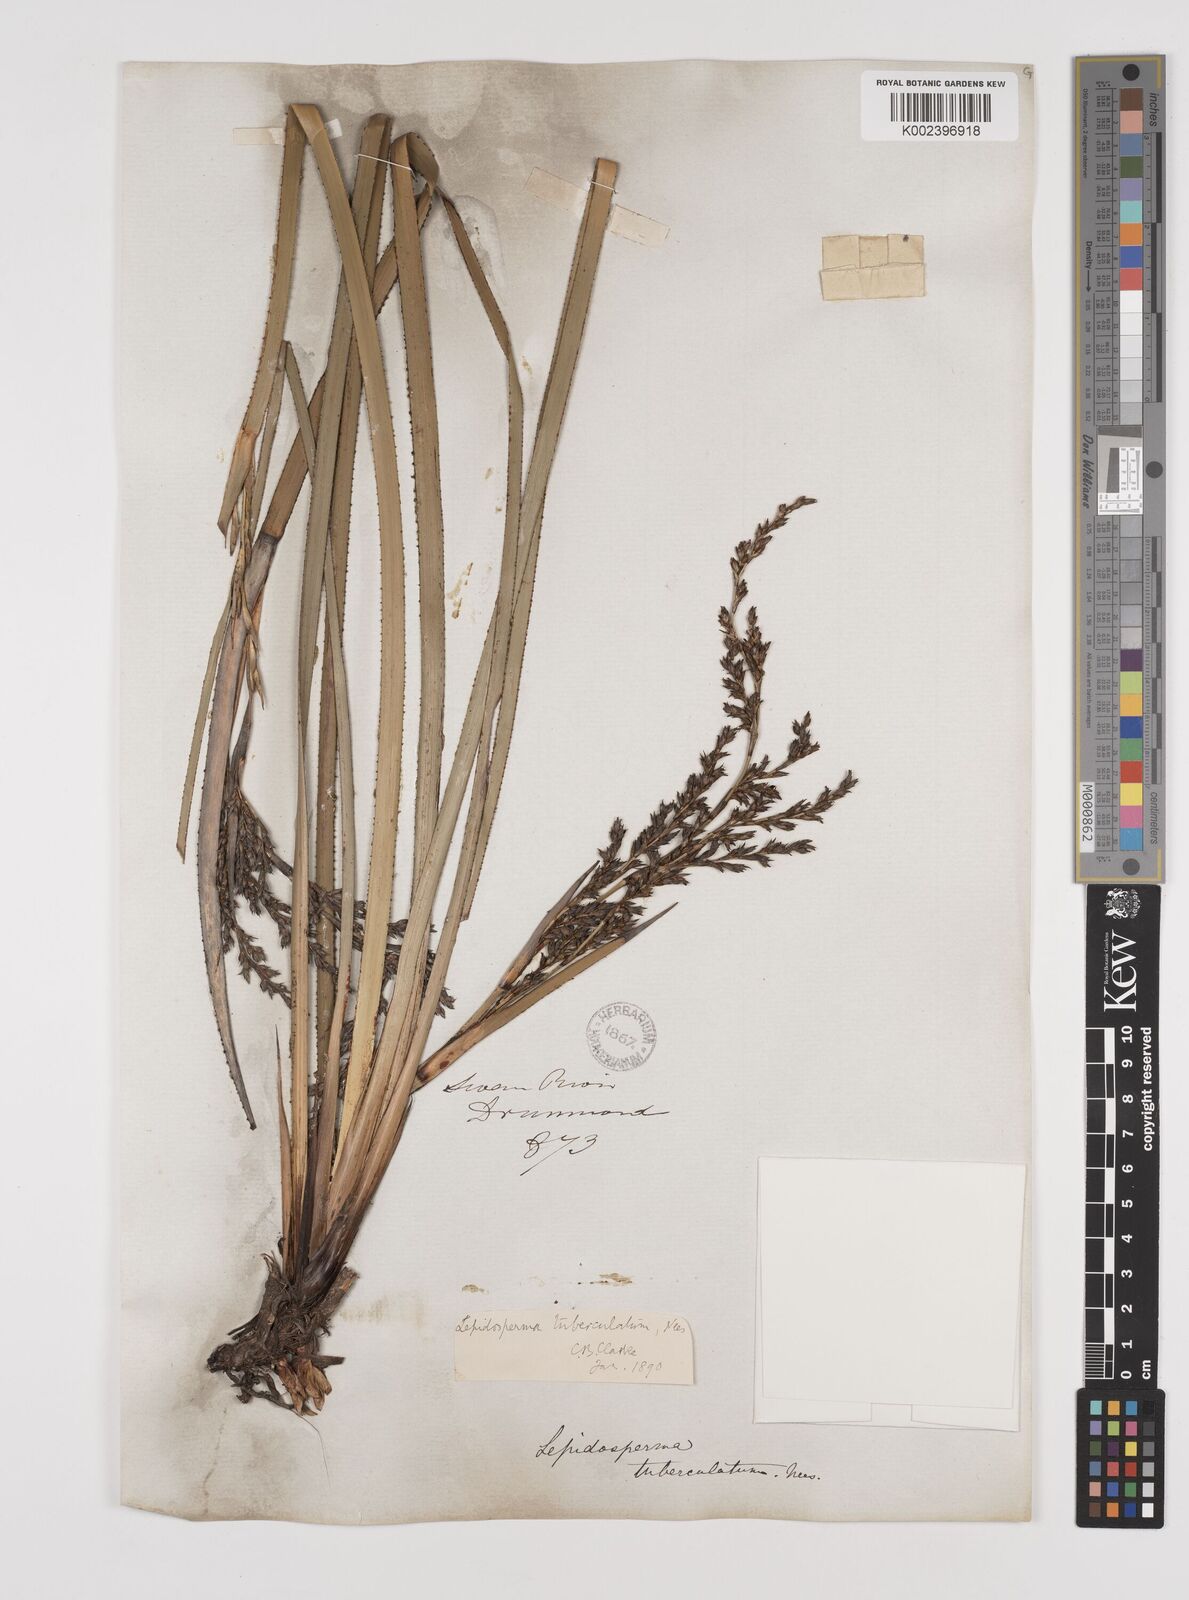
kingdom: Plantae
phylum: Tracheophyta
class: Liliopsida
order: Poales
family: Cyperaceae
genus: Lepidosperma
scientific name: Lepidosperma tuberculatum
